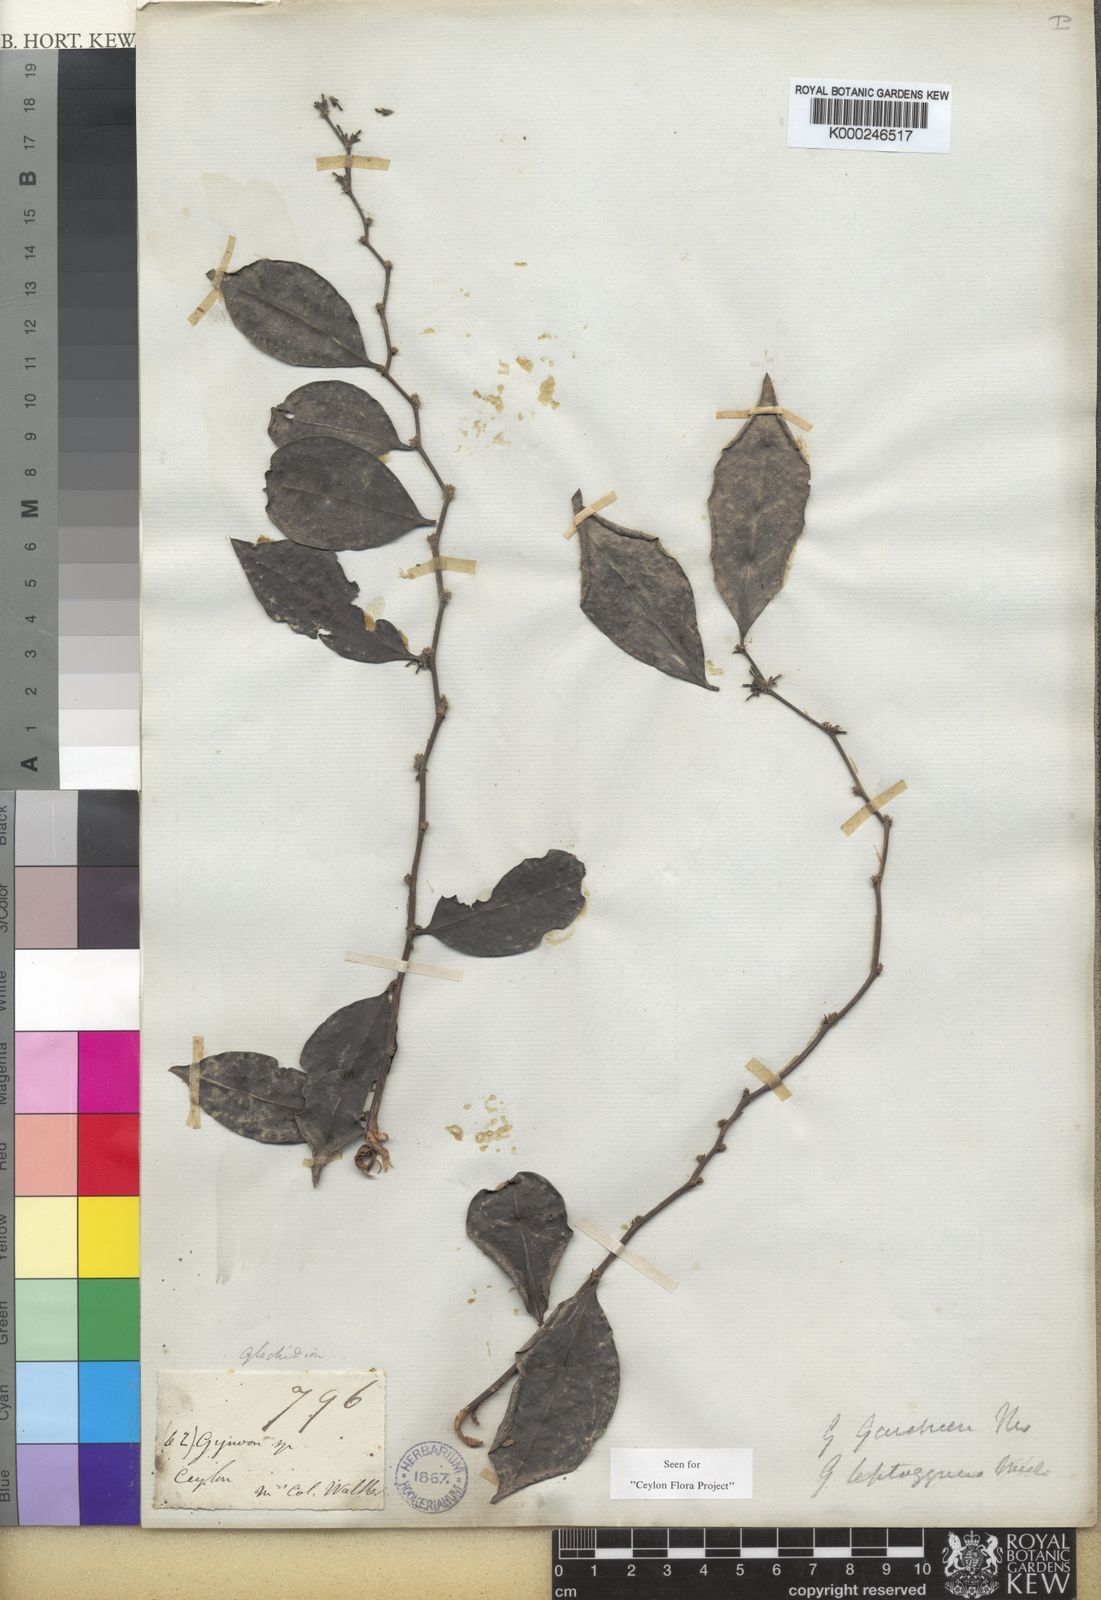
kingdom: Plantae
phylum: Tracheophyta
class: Magnoliopsida
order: Malpighiales
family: Phyllanthaceae
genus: Glochidion
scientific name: Glochidion nemorale
